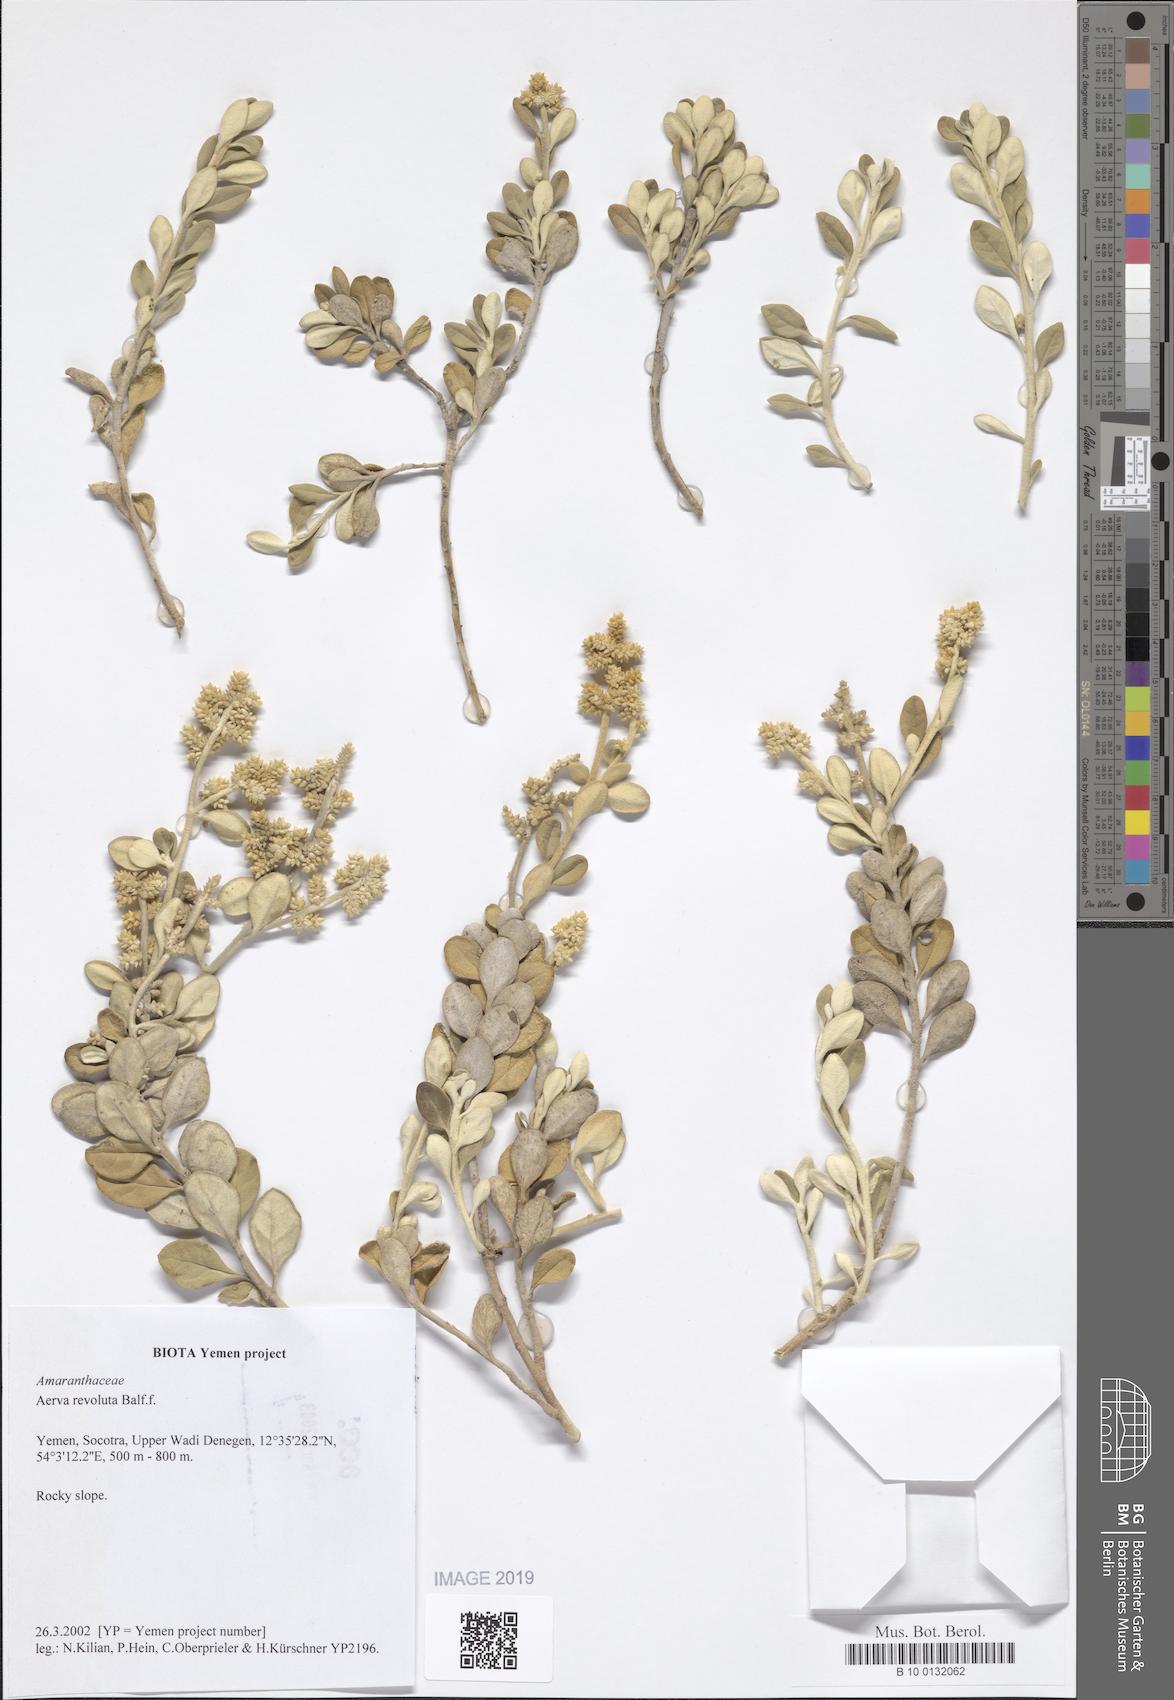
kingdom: Plantae
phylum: Tracheophyta
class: Magnoliopsida
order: Caryophyllales
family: Amaranthaceae
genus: Paraerva
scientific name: Paraerva revoluta
